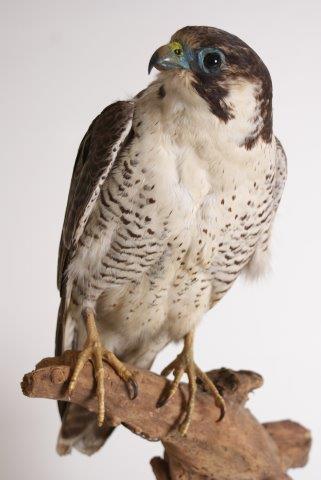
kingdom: Animalia
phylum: Chordata
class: Aves
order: Falconiformes
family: Falconidae
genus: Falco
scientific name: Falco peregrinus
